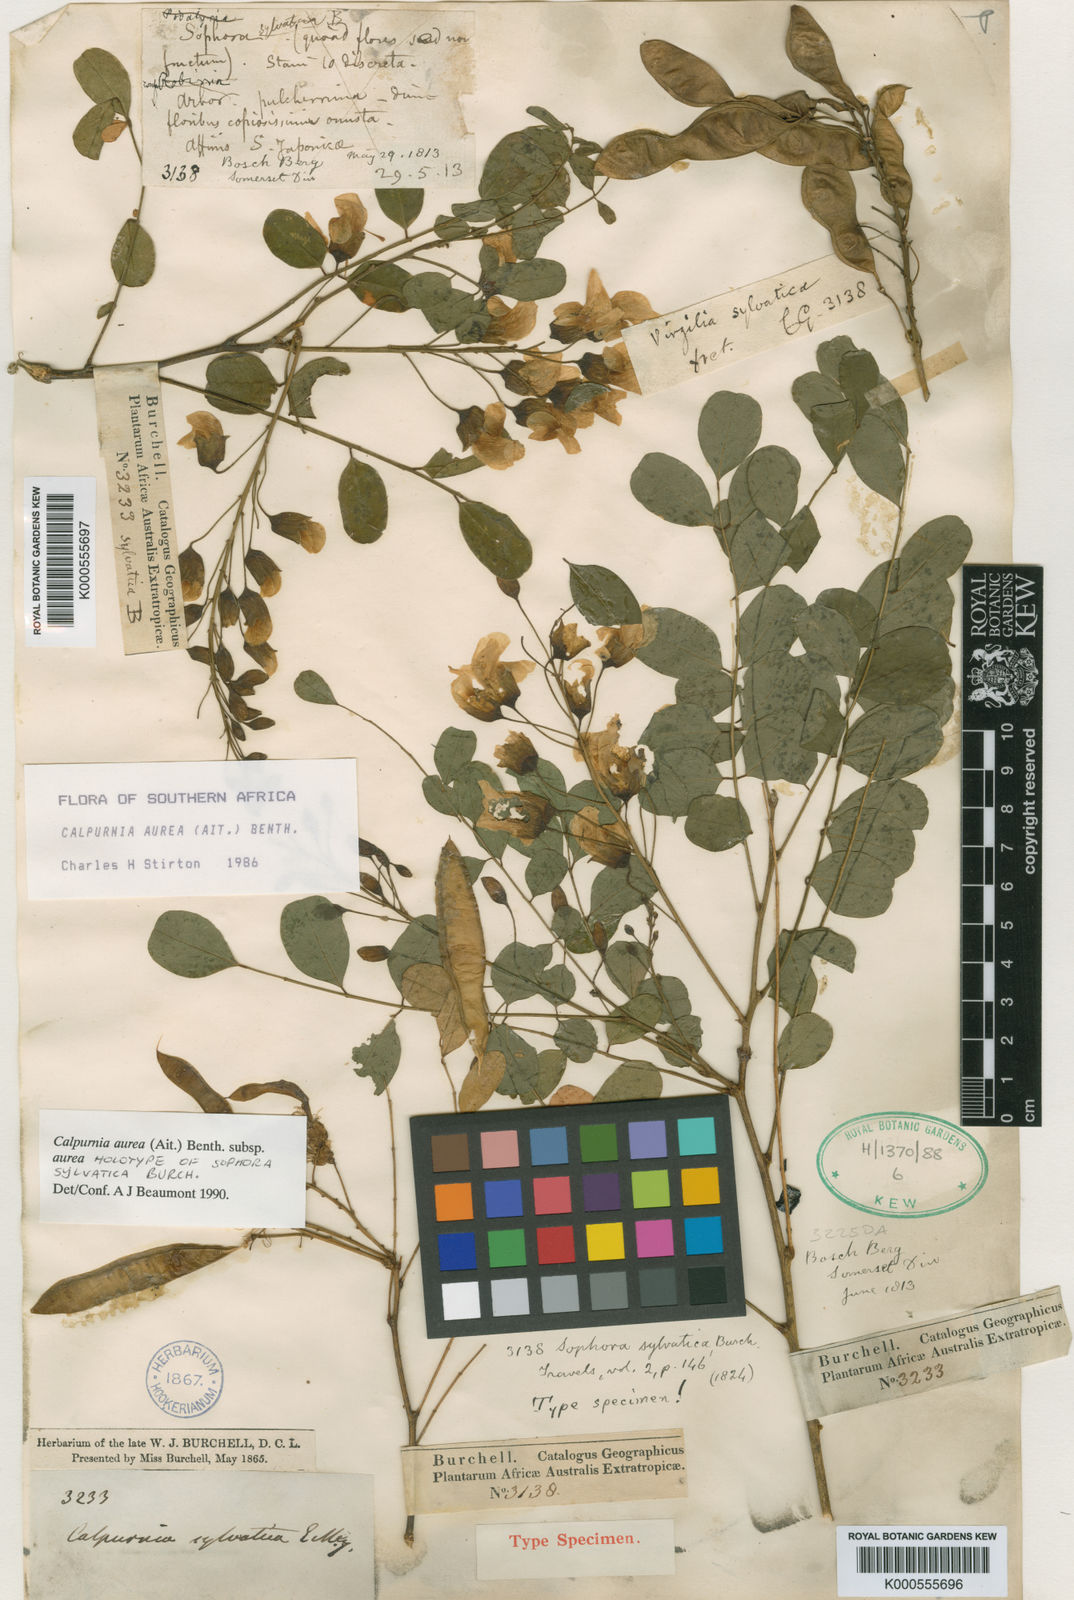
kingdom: Plantae
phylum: Tracheophyta
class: Magnoliopsida
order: Fabales
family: Fabaceae
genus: Calpurnia
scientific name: Calpurnia aurea
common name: Wild laburnum
